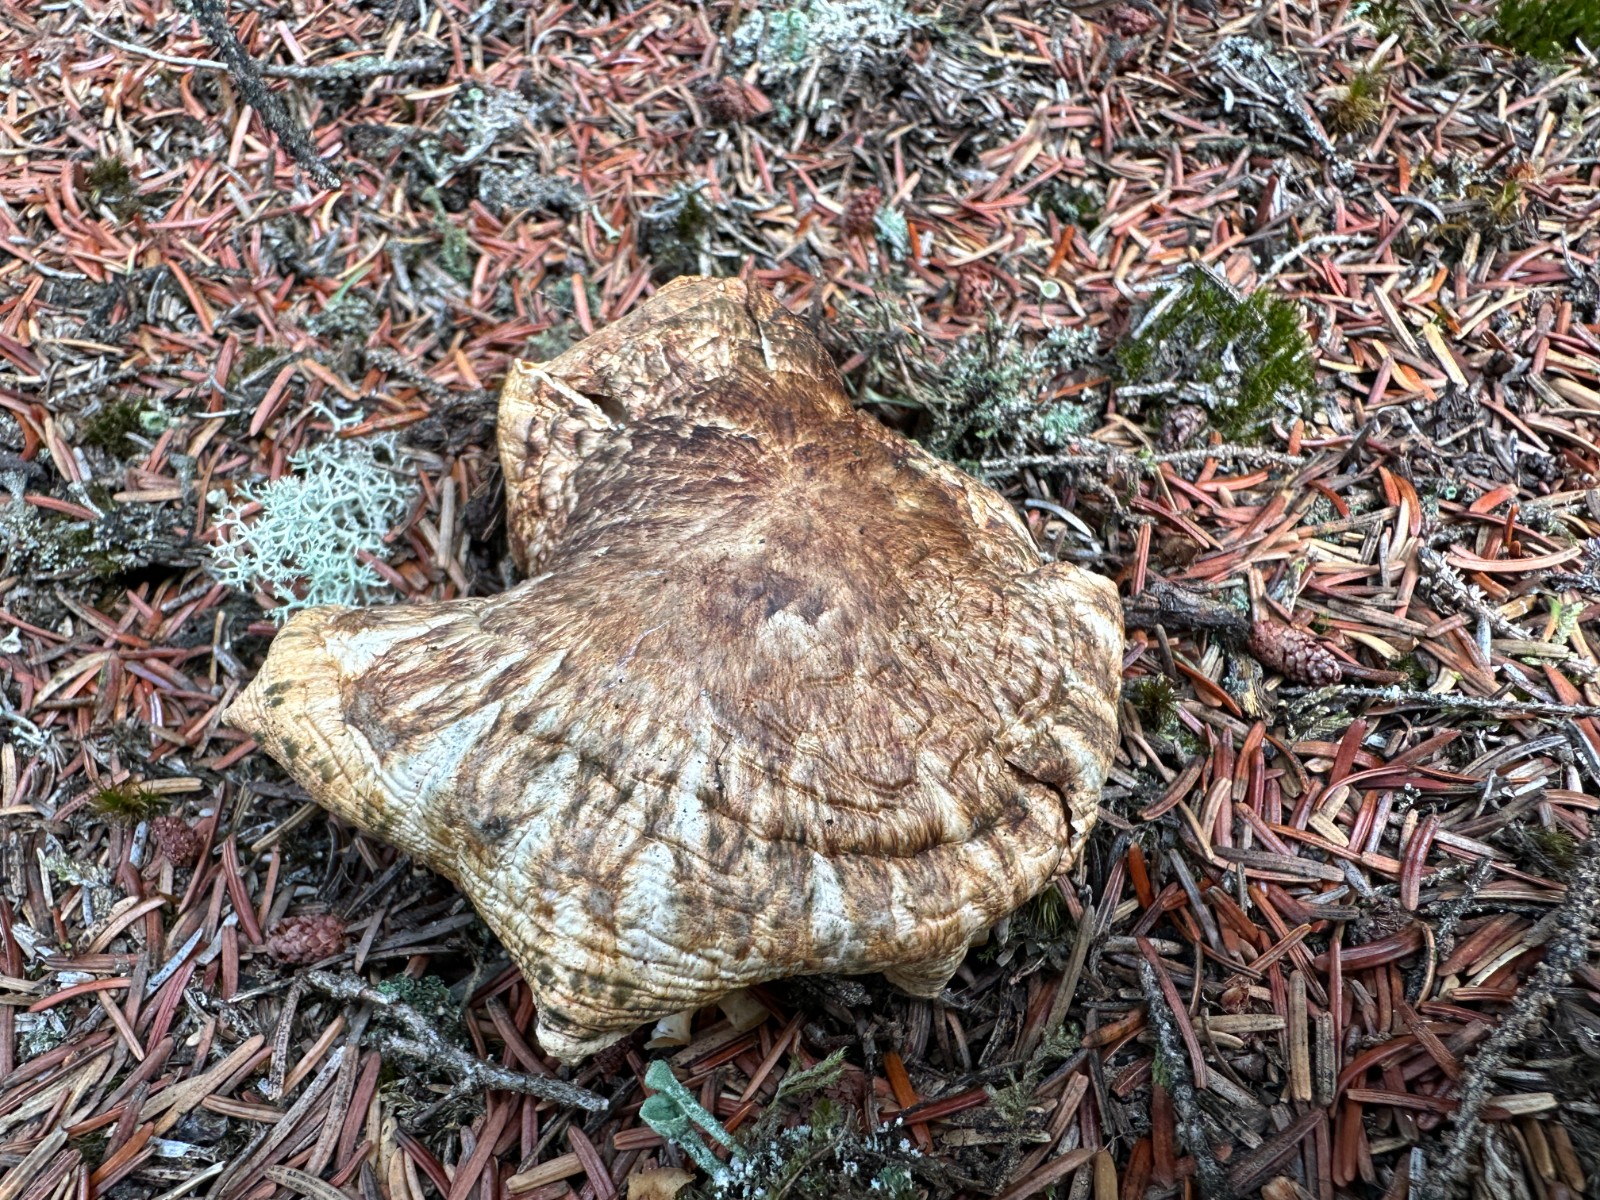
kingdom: Fungi
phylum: Basidiomycota
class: Agaricomycetes
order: Agaricales
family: Tricholomataceae
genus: Tricholoma
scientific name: Tricholoma matsutake
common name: duft-ridderhat
